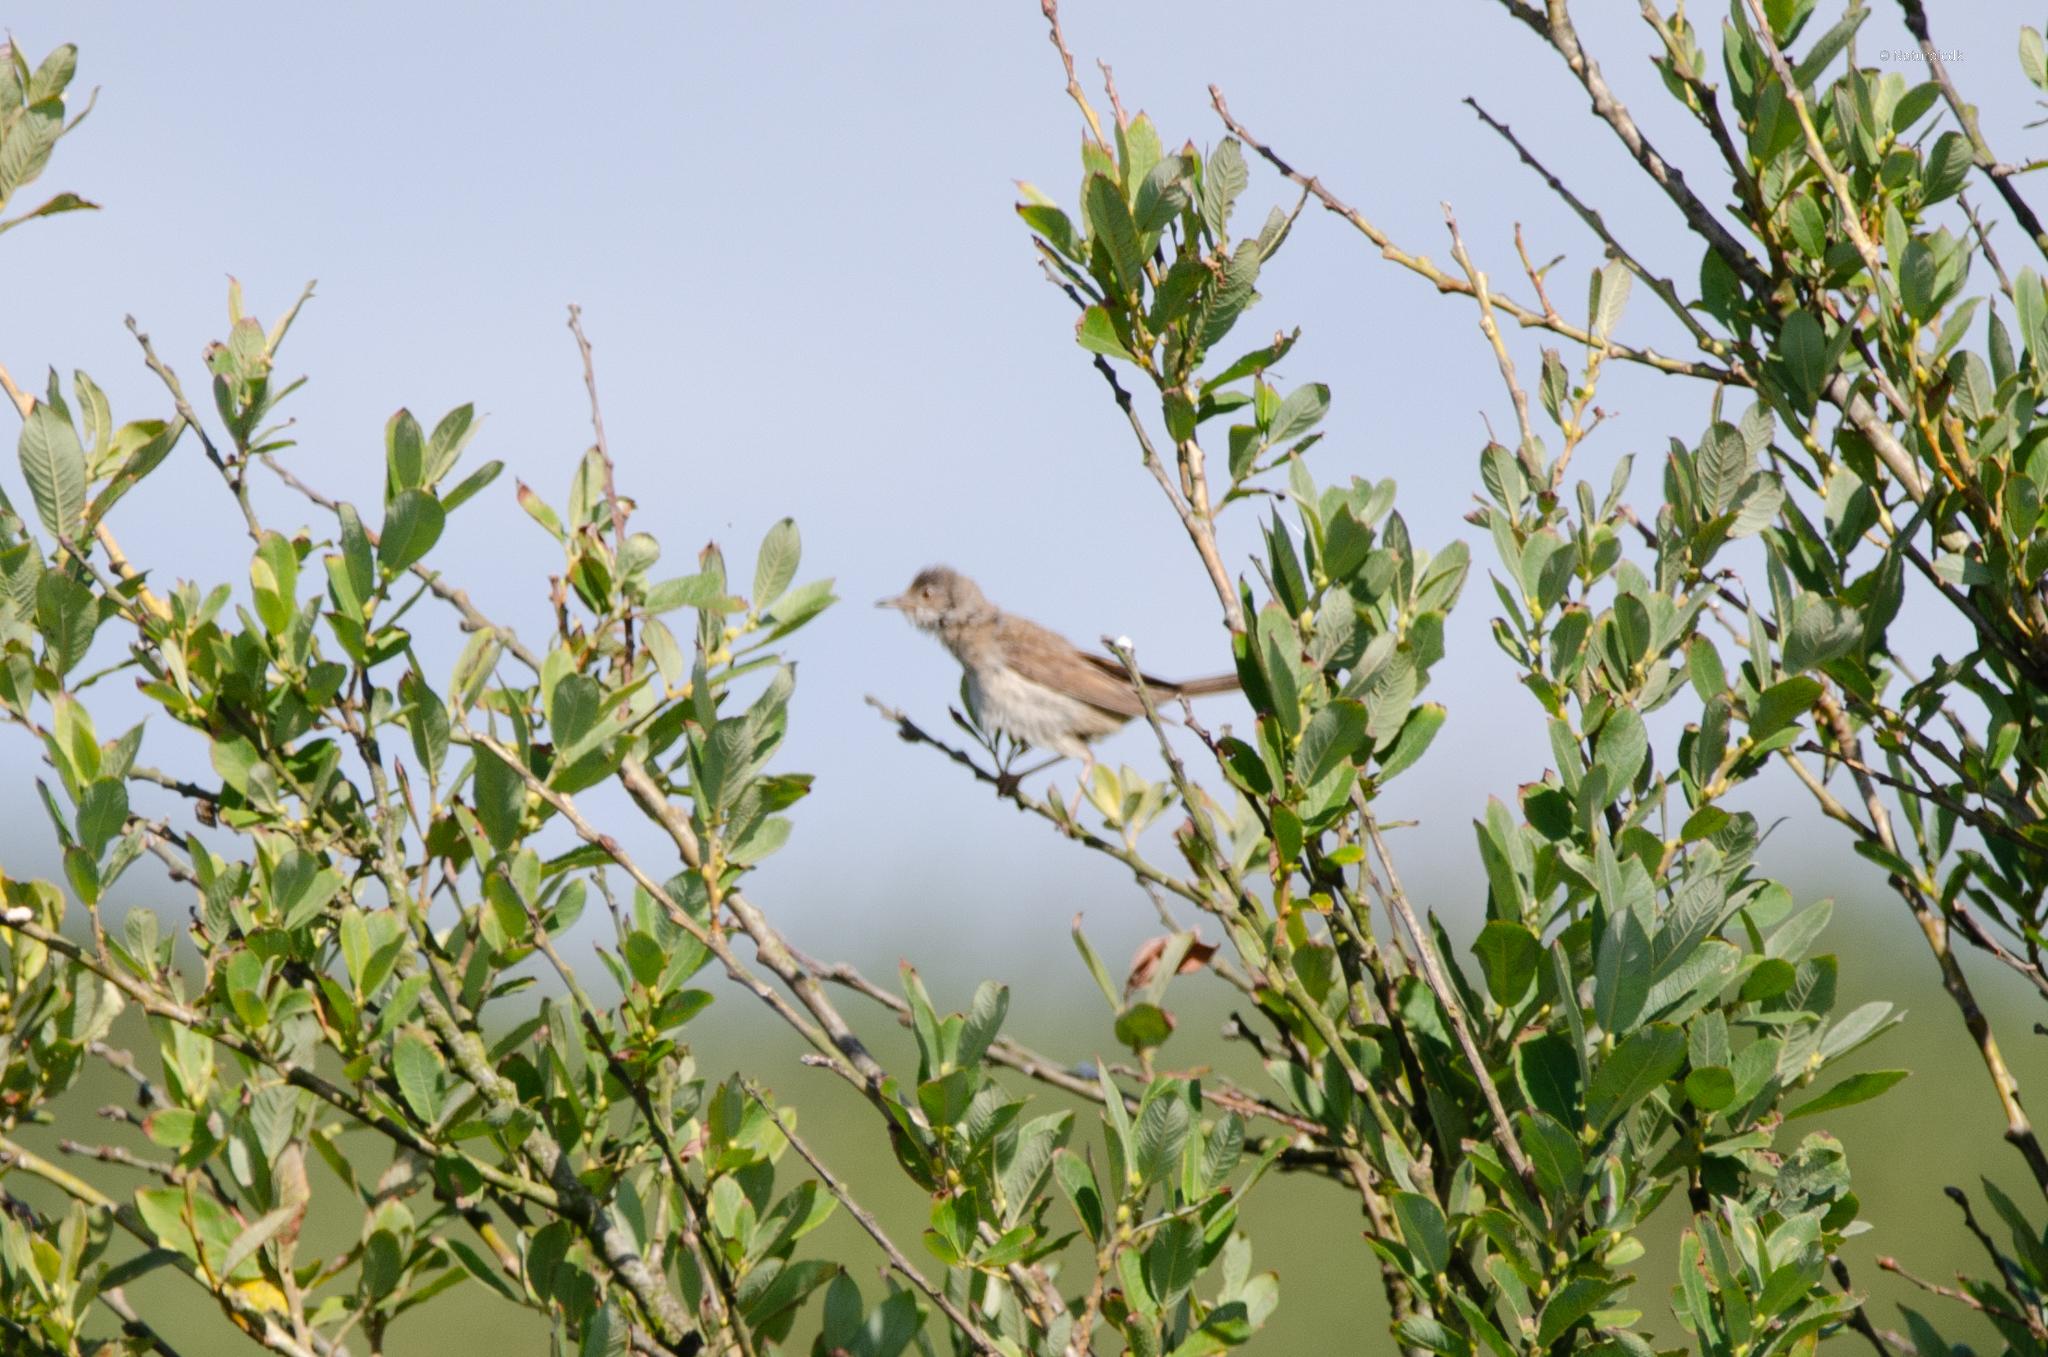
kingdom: Animalia
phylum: Chordata
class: Aves
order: Passeriformes
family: Sylviidae
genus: Sylvia
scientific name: Sylvia communis
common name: Tornsanger
